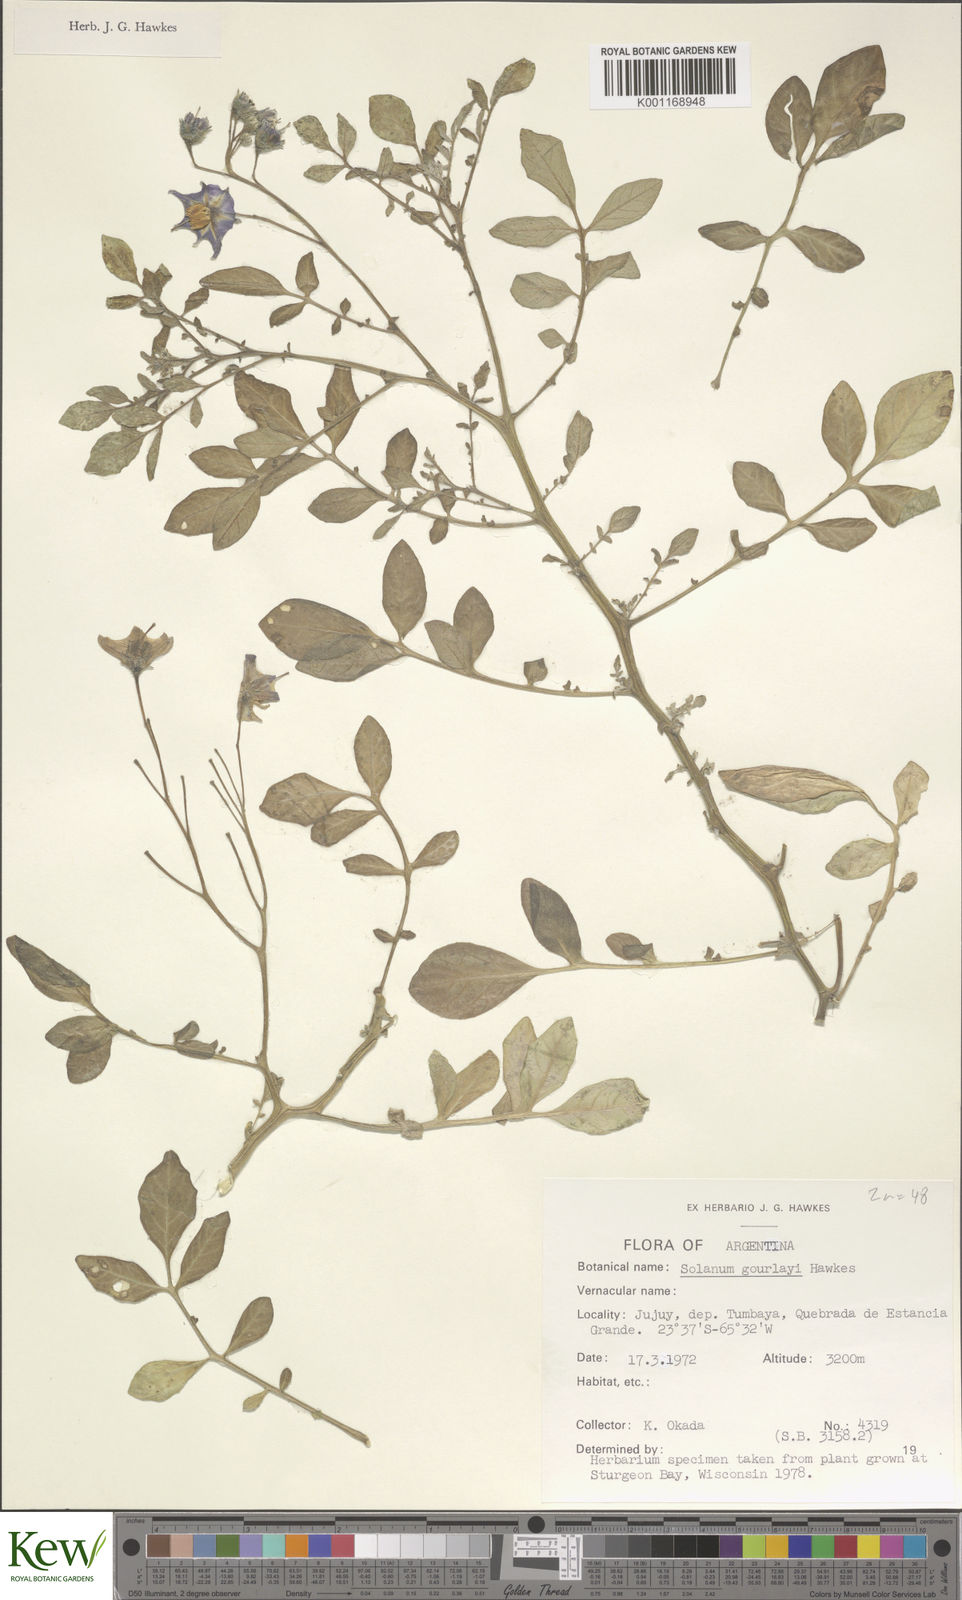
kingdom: Plantae
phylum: Tracheophyta
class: Magnoliopsida
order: Solanales
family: Solanaceae
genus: Solanum
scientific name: Solanum brevicaule
